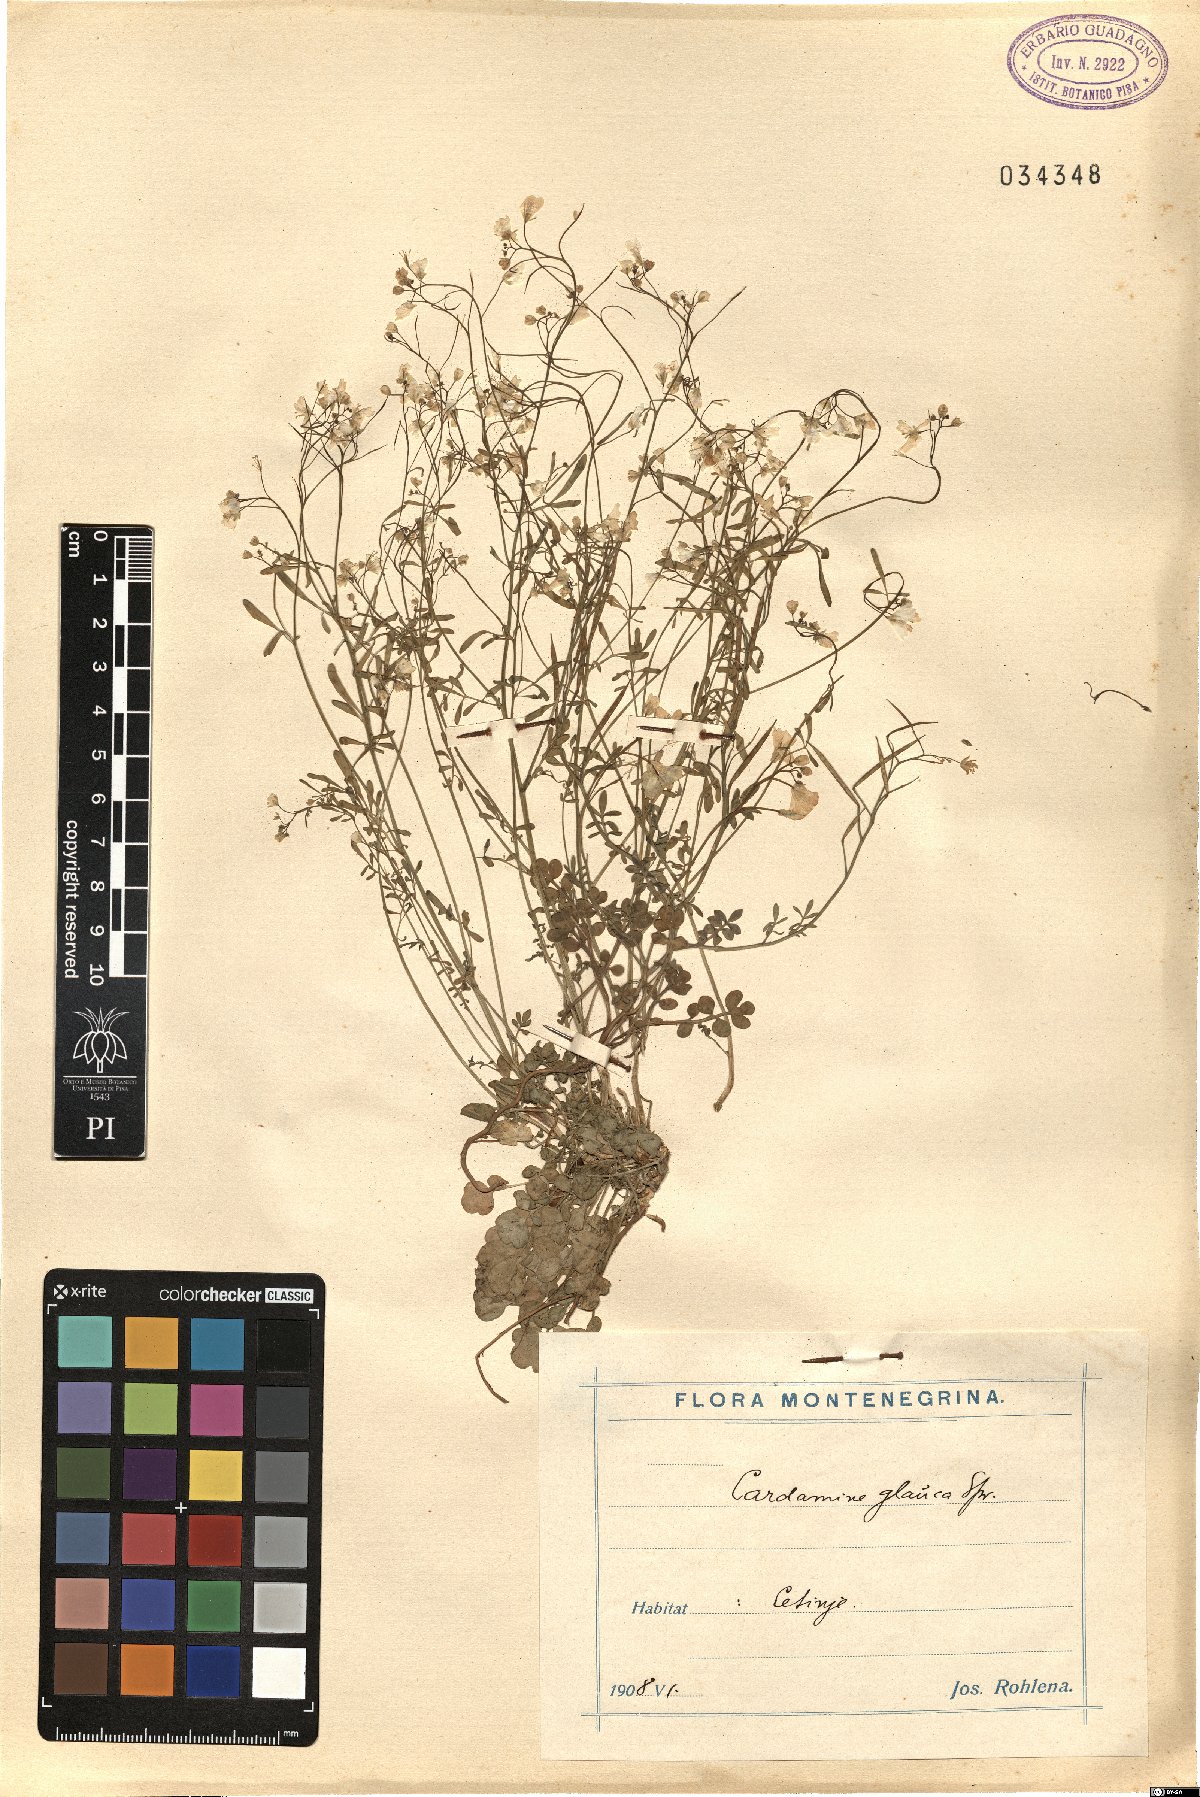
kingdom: Plantae
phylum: Tracheophyta
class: Magnoliopsida
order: Brassicales
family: Brassicaceae
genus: Cardamine
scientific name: Cardamine glauca
